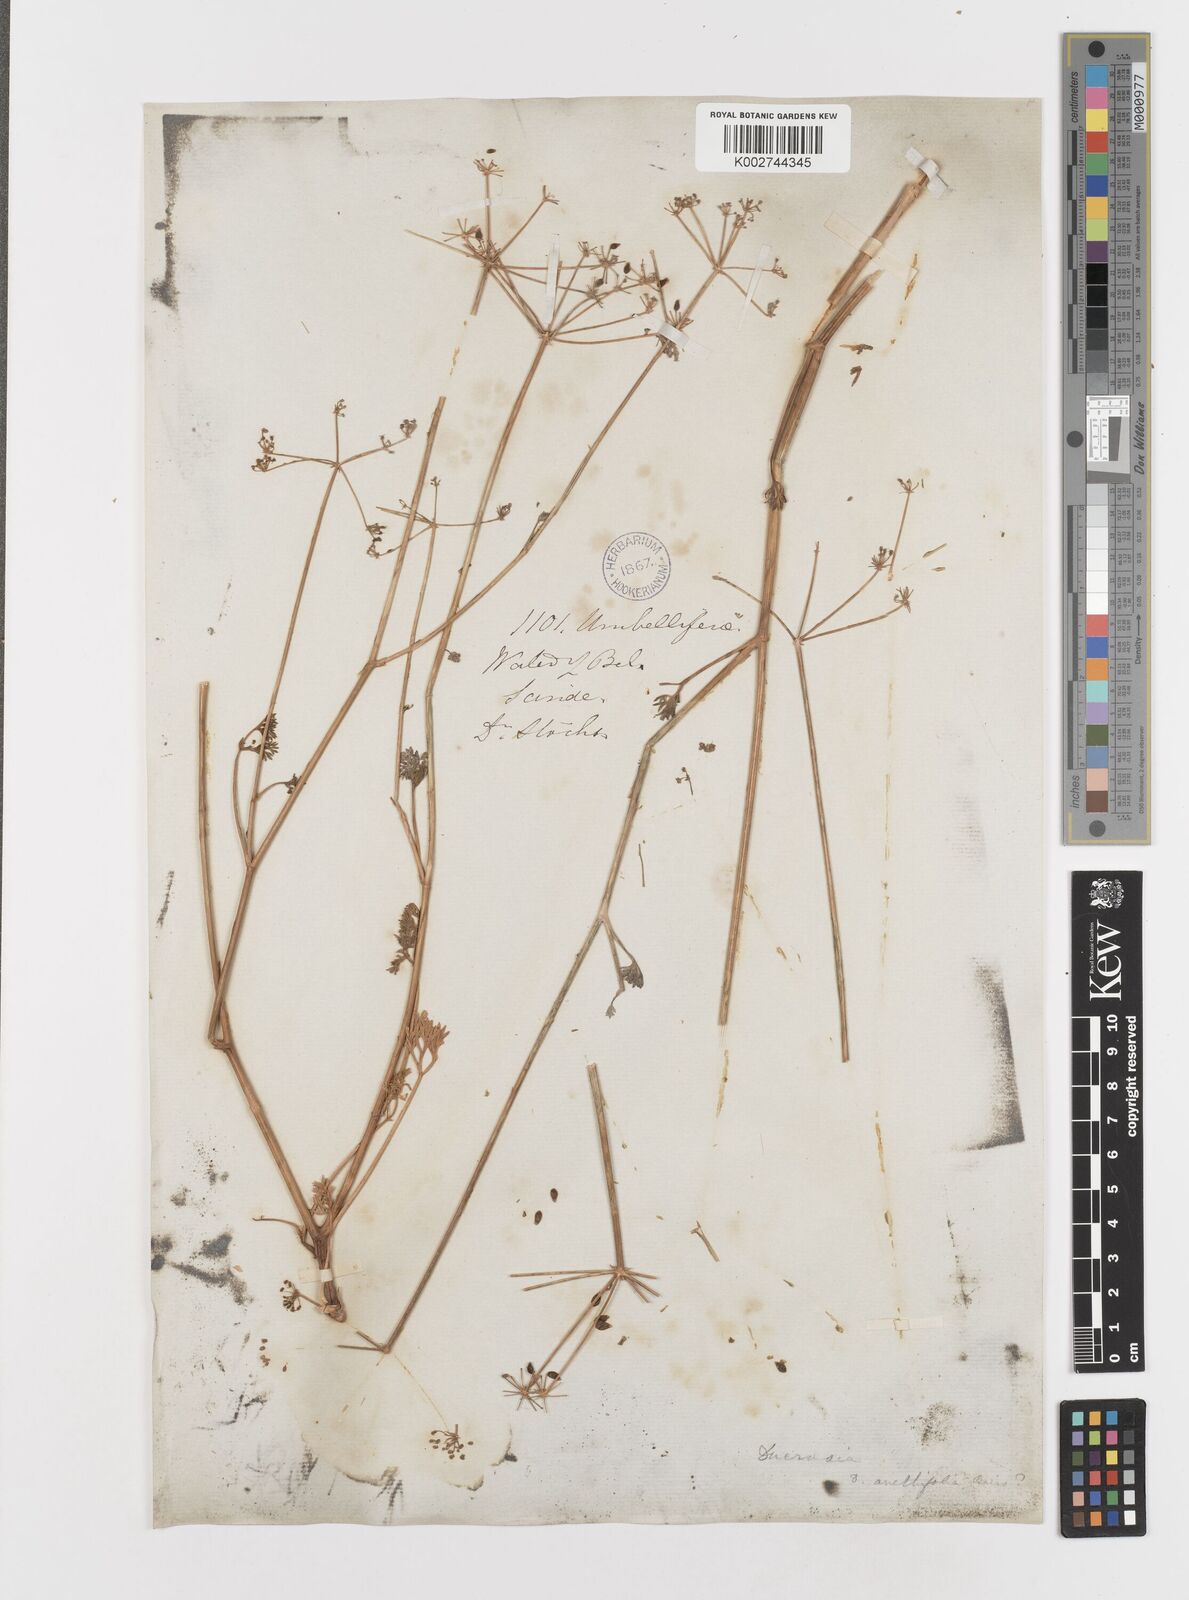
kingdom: Plantae
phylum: Tracheophyta
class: Magnoliopsida
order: Apiales
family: Apiaceae
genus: Ducrosia
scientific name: Ducrosia anethifolia
